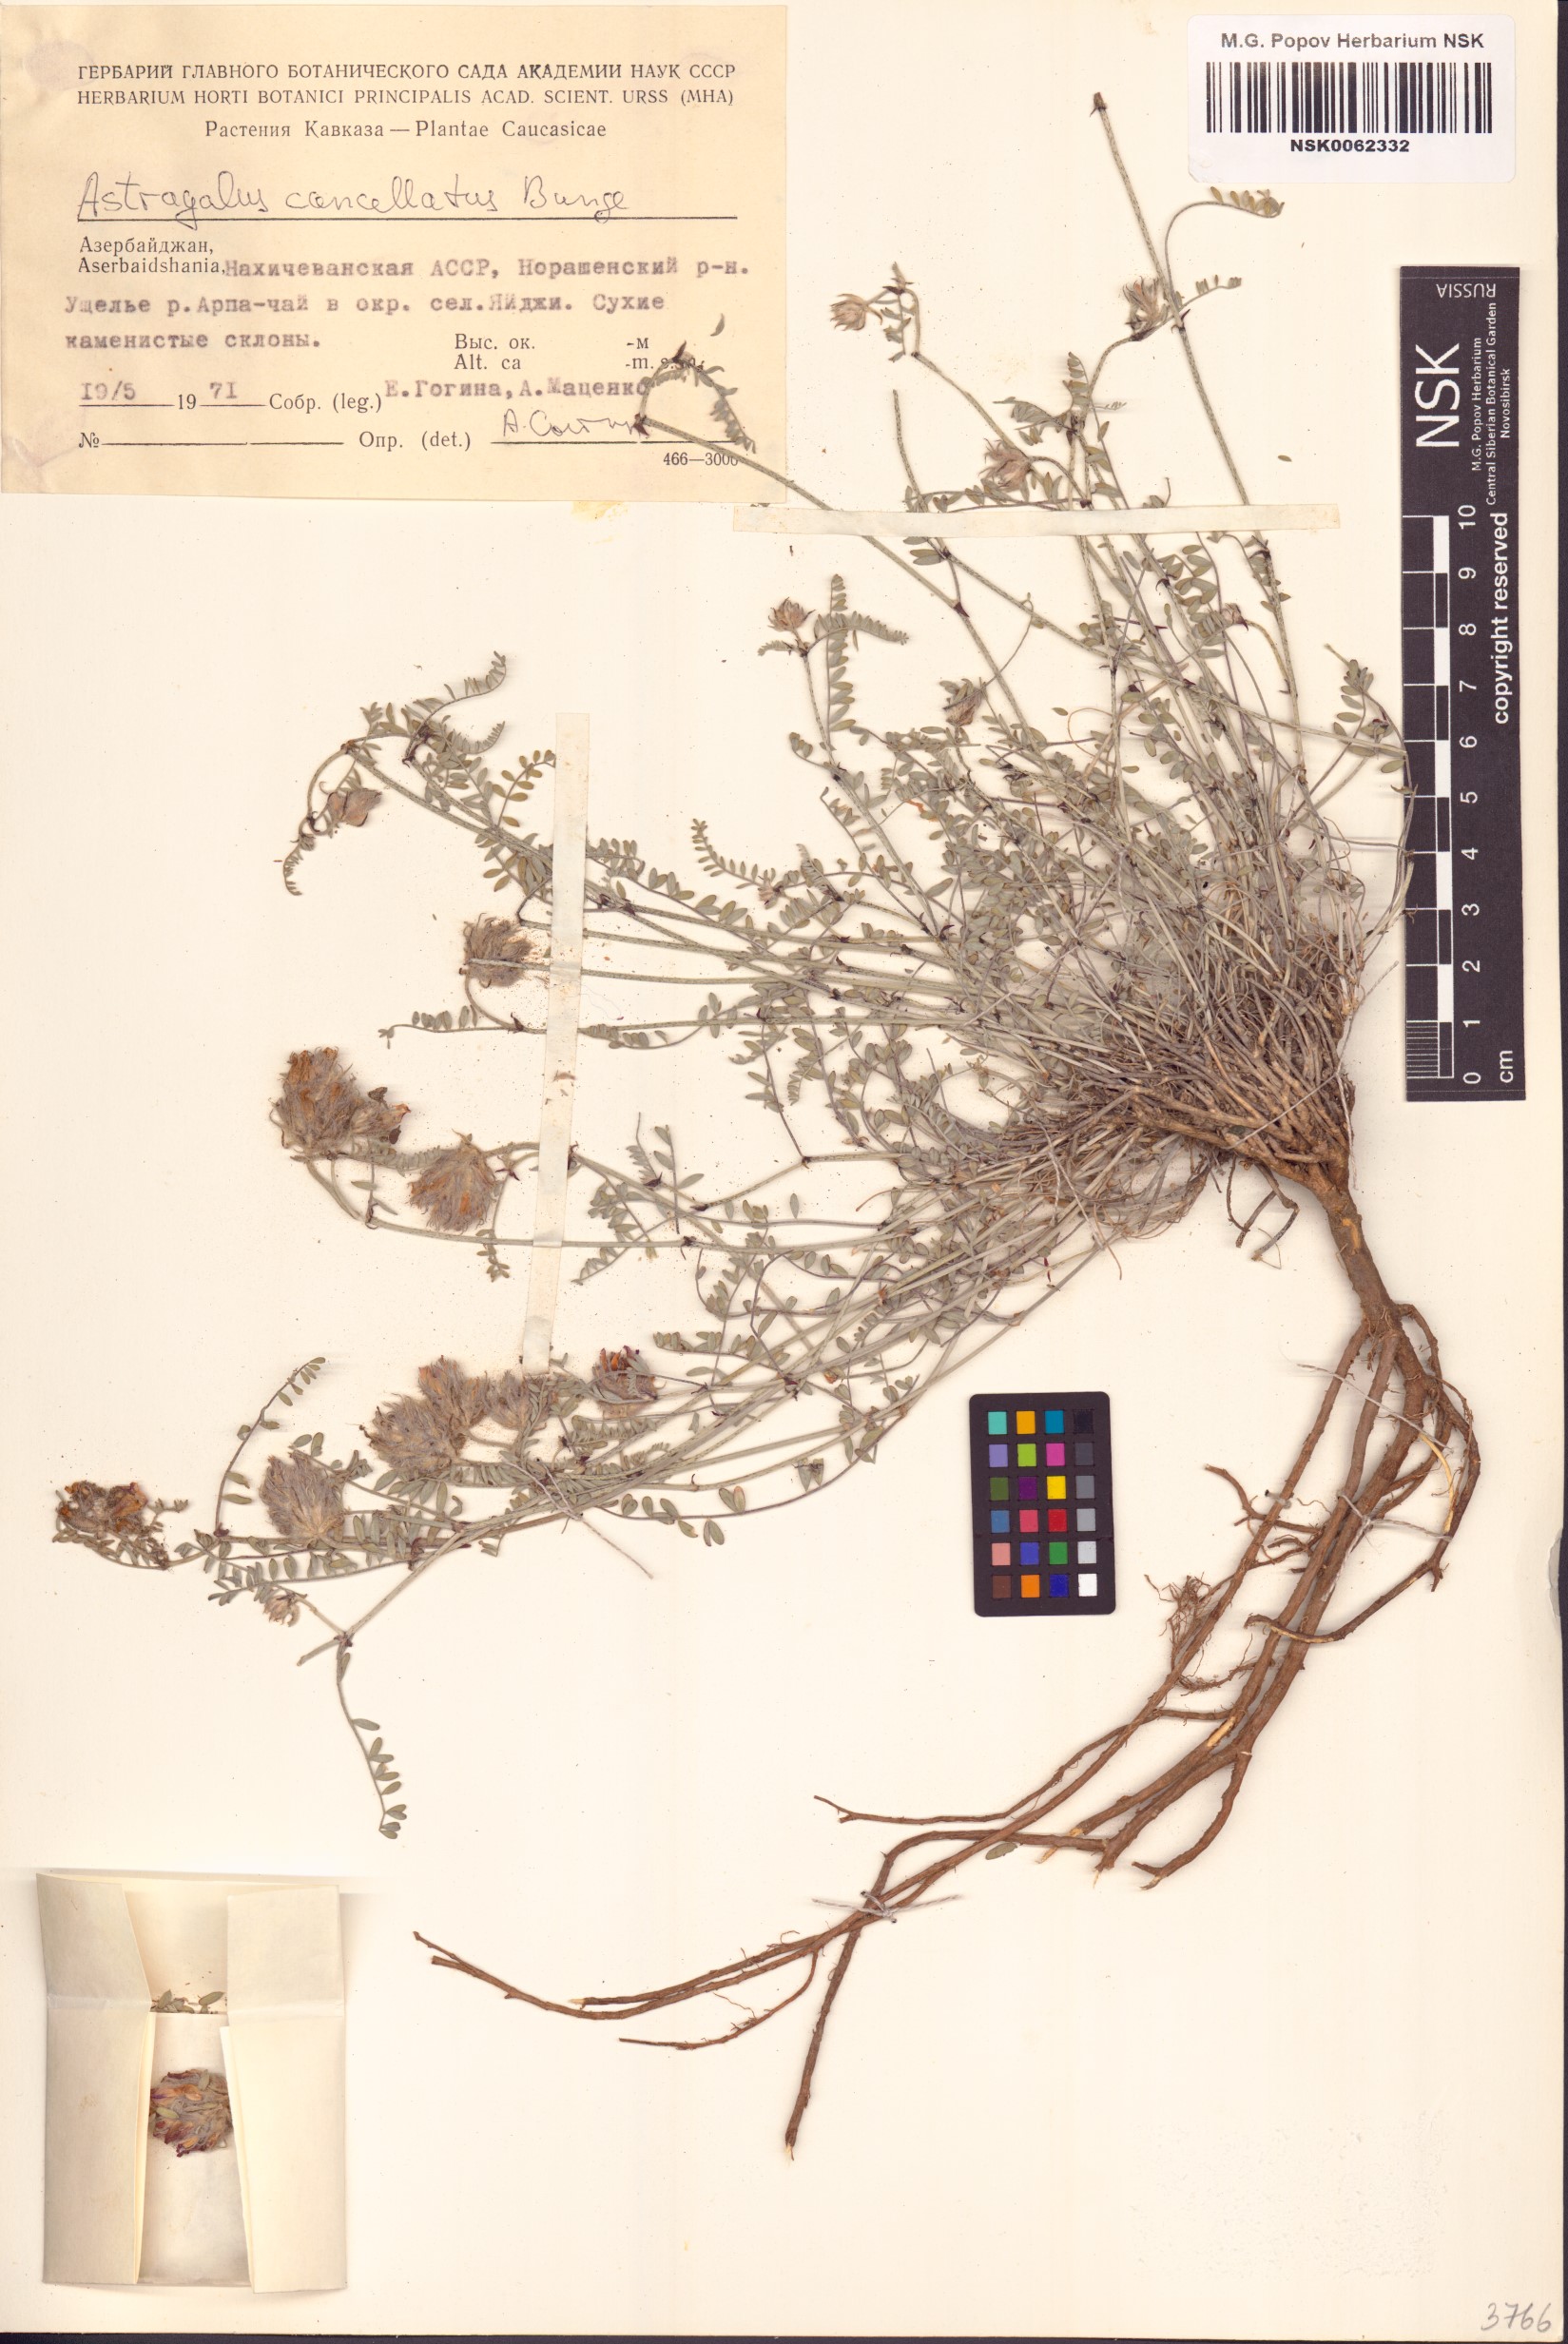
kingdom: Plantae
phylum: Tracheophyta
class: Magnoliopsida
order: Fabales
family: Fabaceae
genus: Astragalus
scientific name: Astragalus cancellatus
